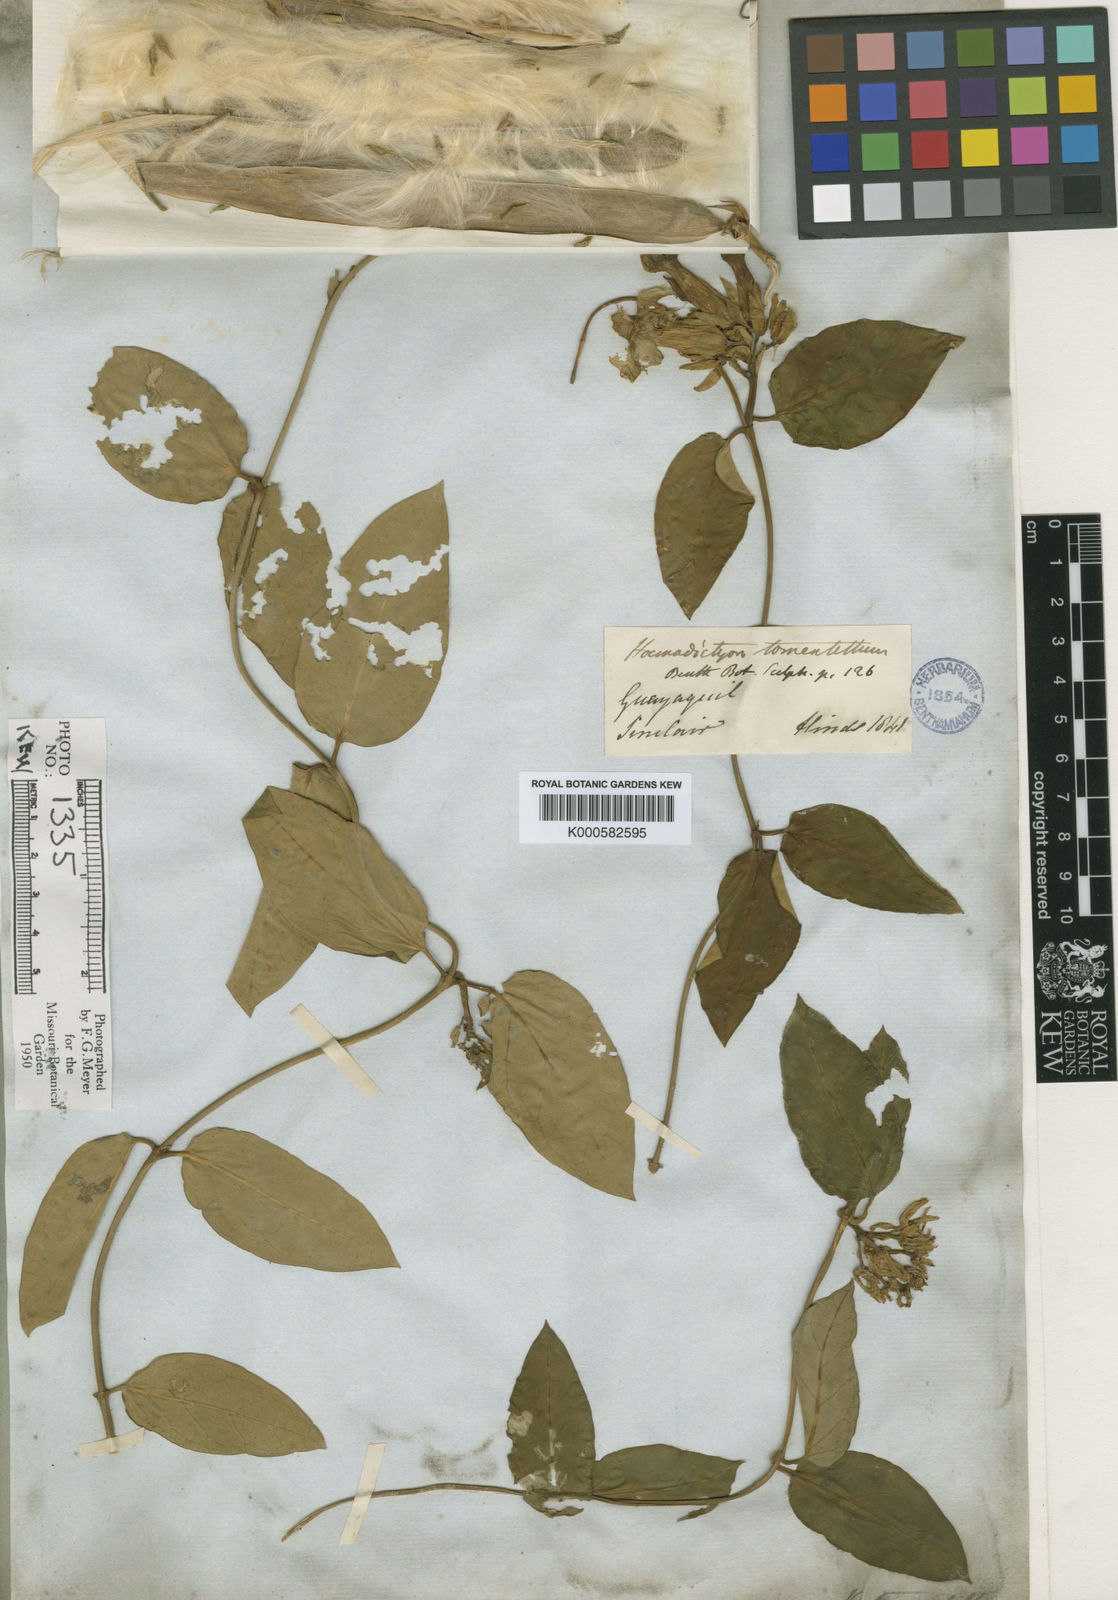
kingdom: Plantae
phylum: Tracheophyta
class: Magnoliopsida
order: Gentianales
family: Apocynaceae
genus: Prestonia
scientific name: Prestonia
